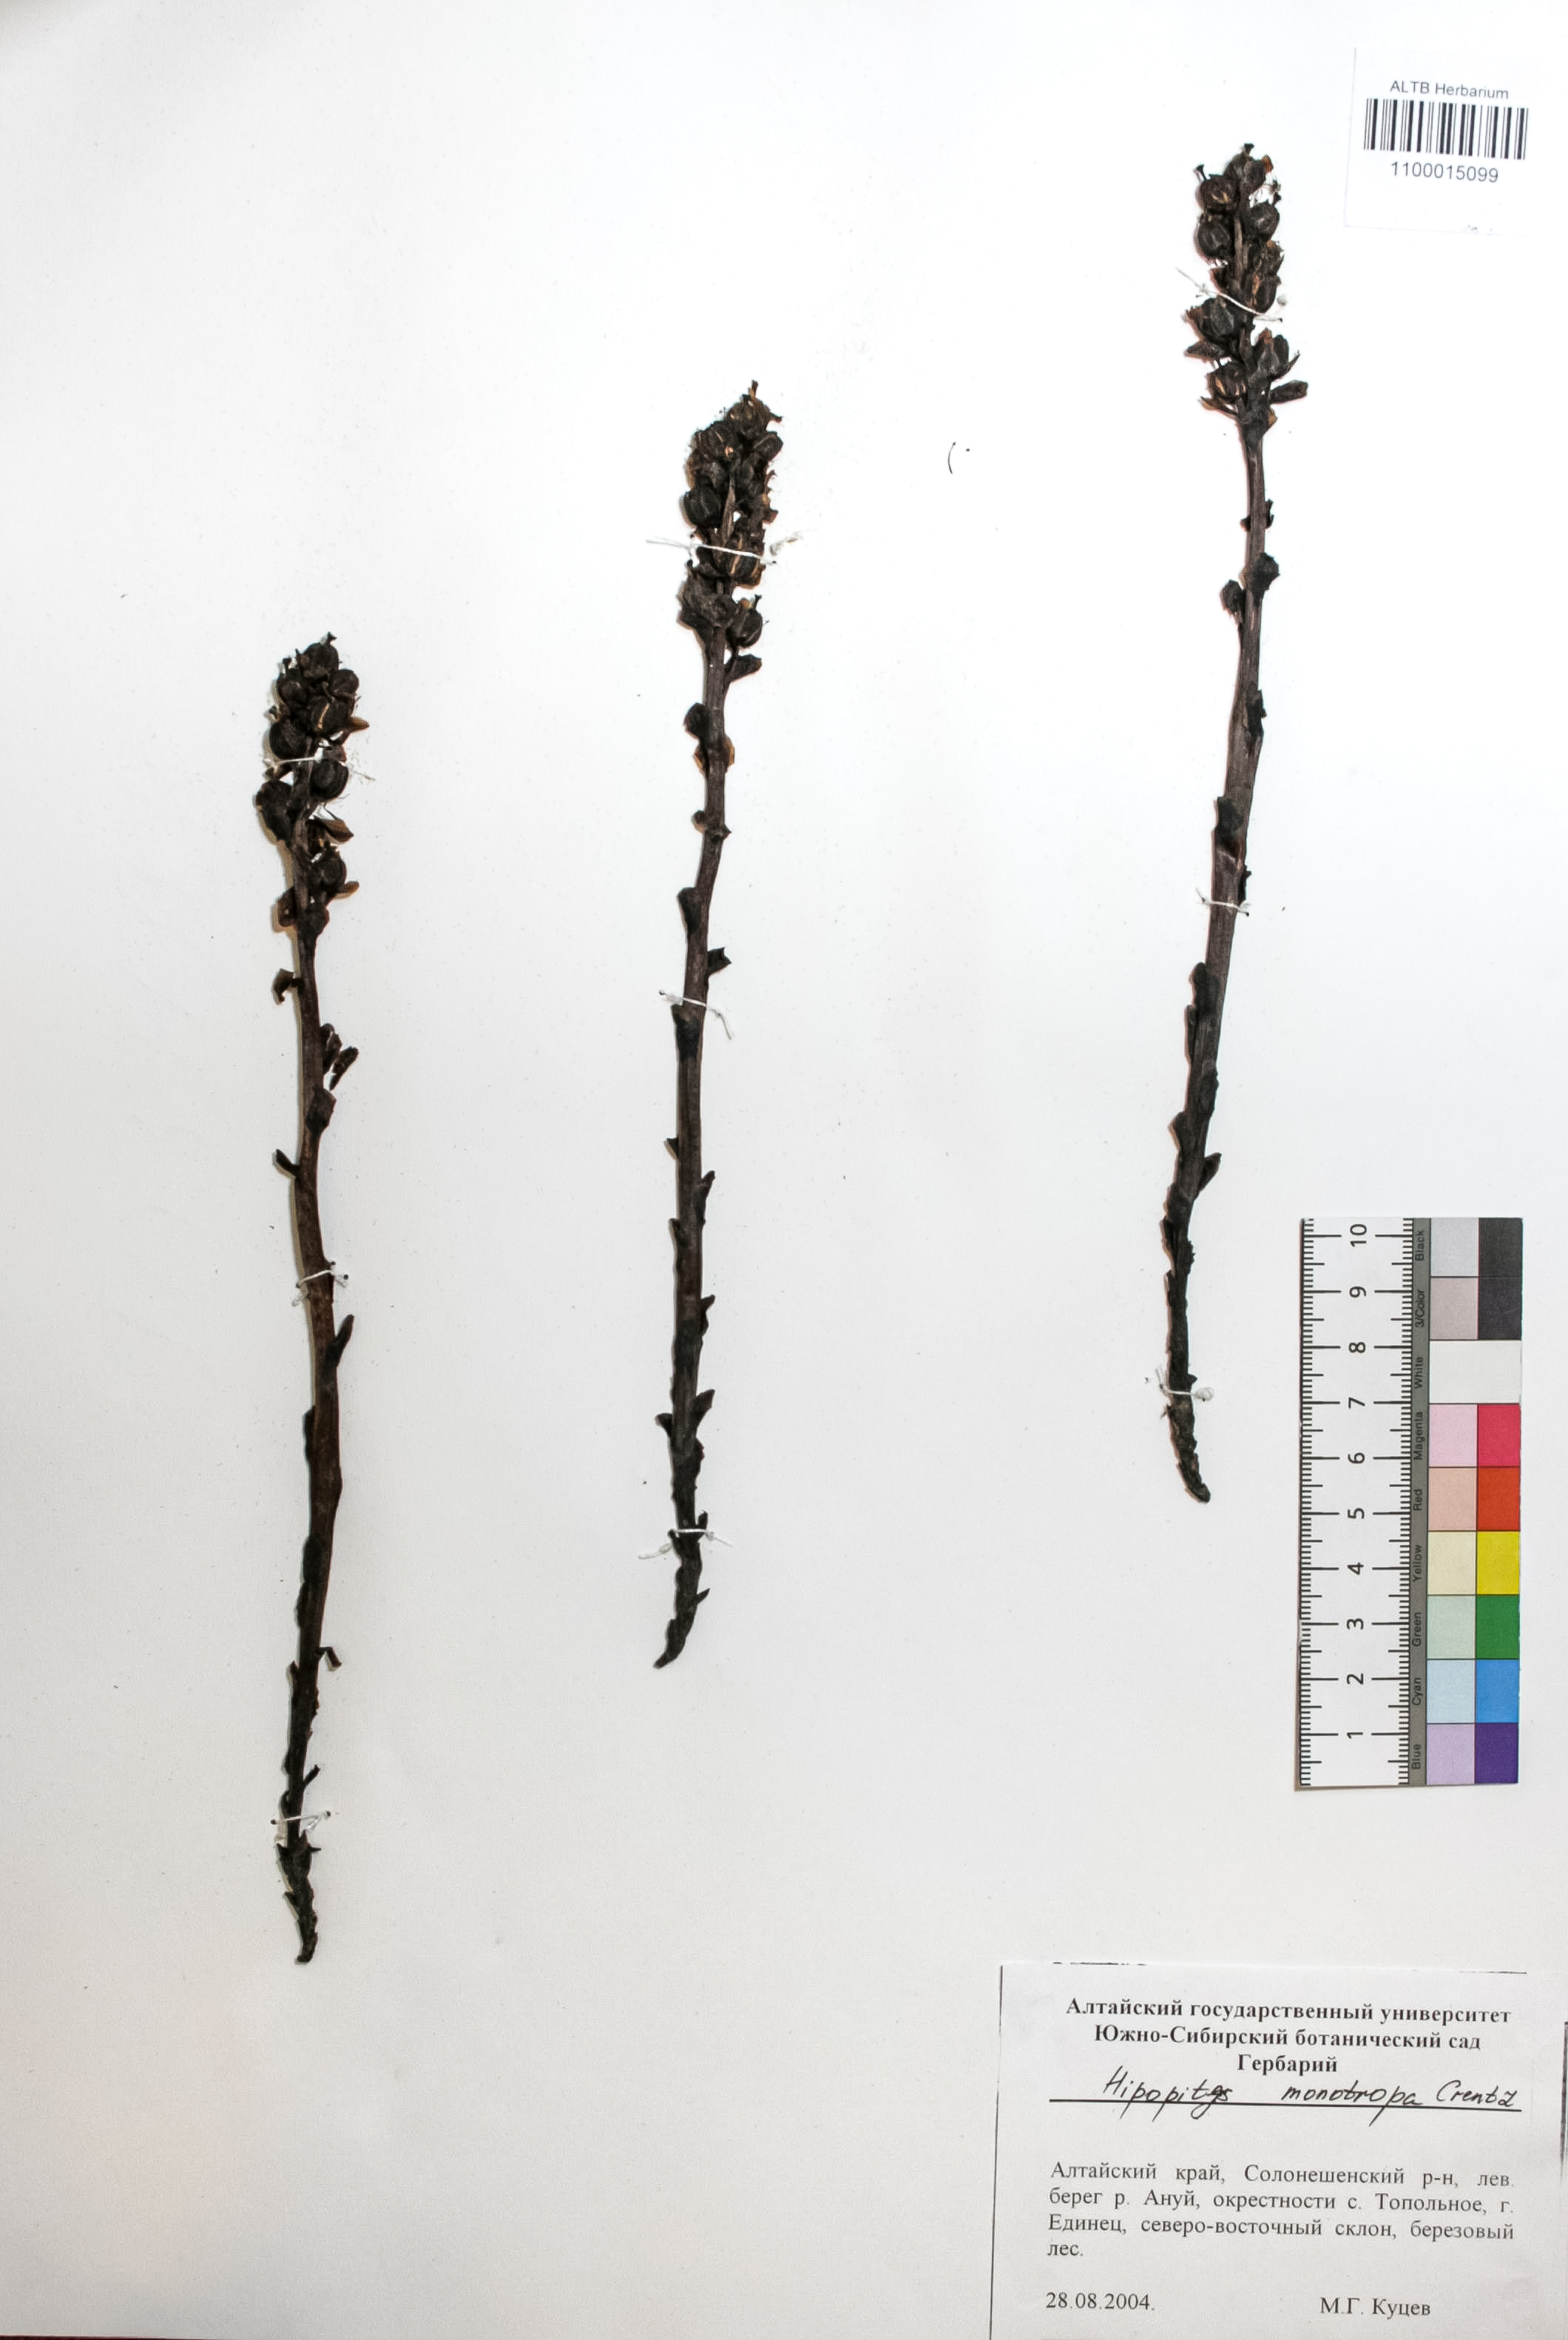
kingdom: Plantae
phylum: Tracheophyta
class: Magnoliopsida
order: Ericales
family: Ericaceae
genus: Hypopitys
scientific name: Hypopitys monotropa
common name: Yellow bird's-nest
